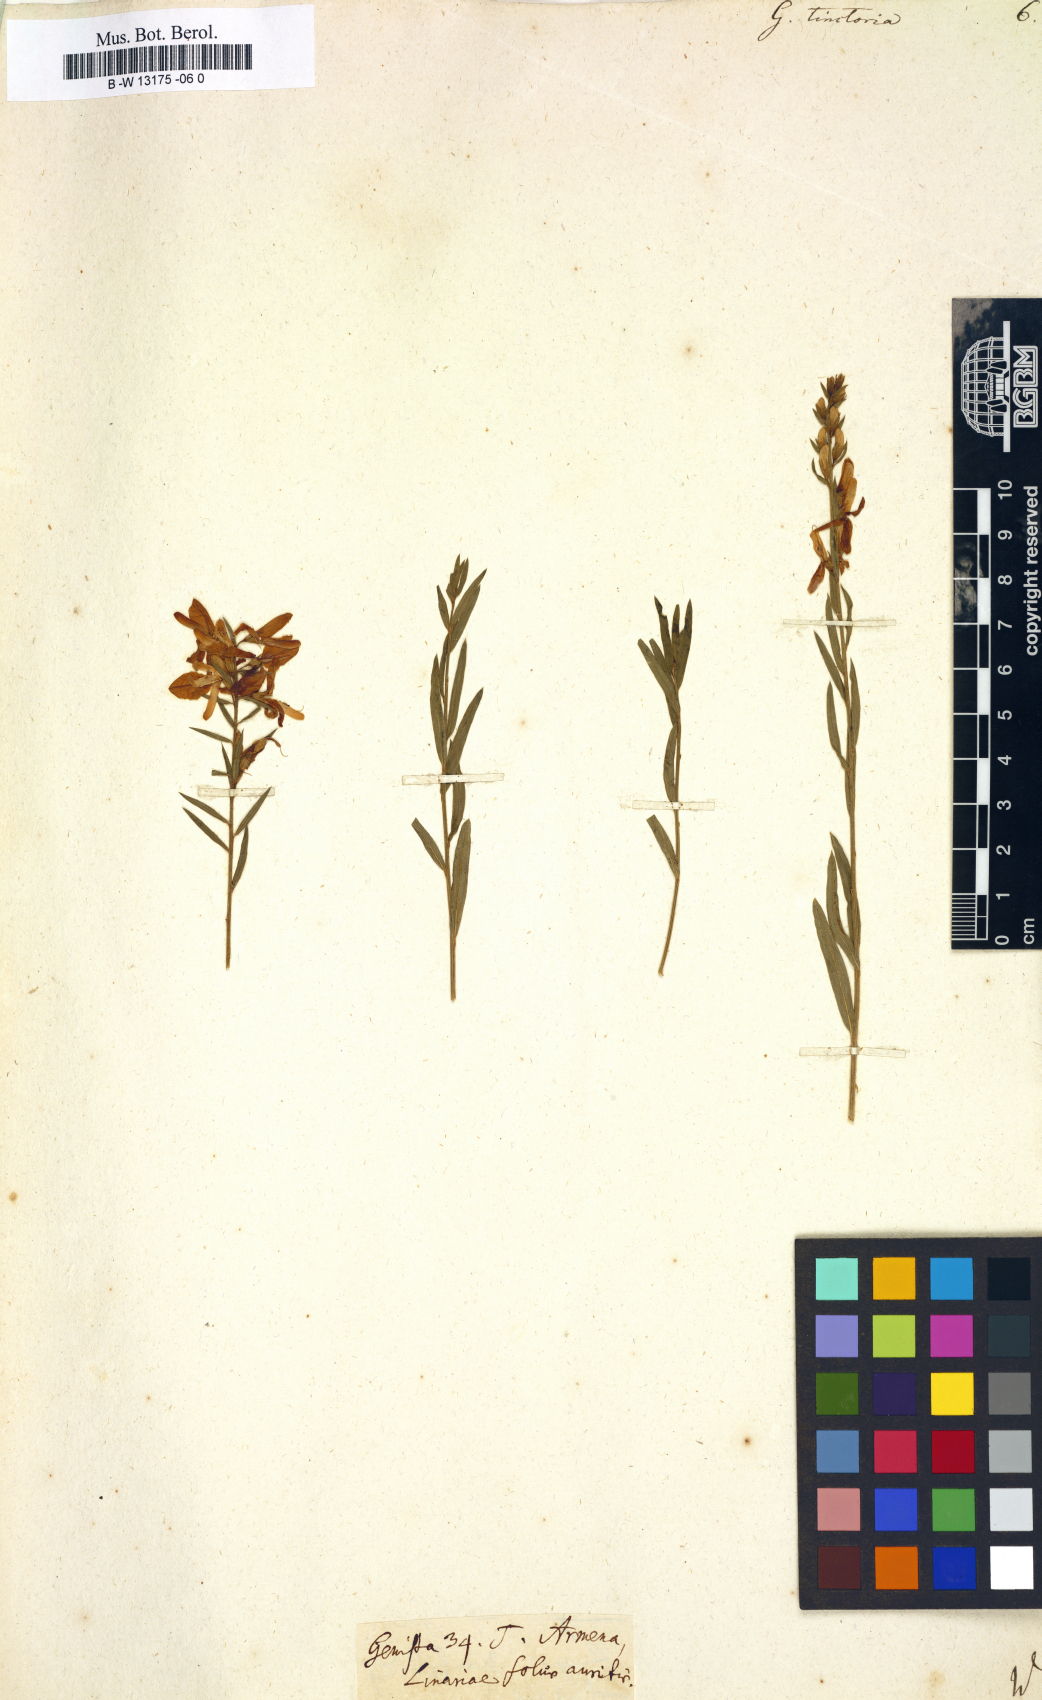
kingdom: Plantae
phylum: Tracheophyta
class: Magnoliopsida
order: Fabales
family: Fabaceae
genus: Genista
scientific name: Genista tinctoria
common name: Dyer's greenweed
